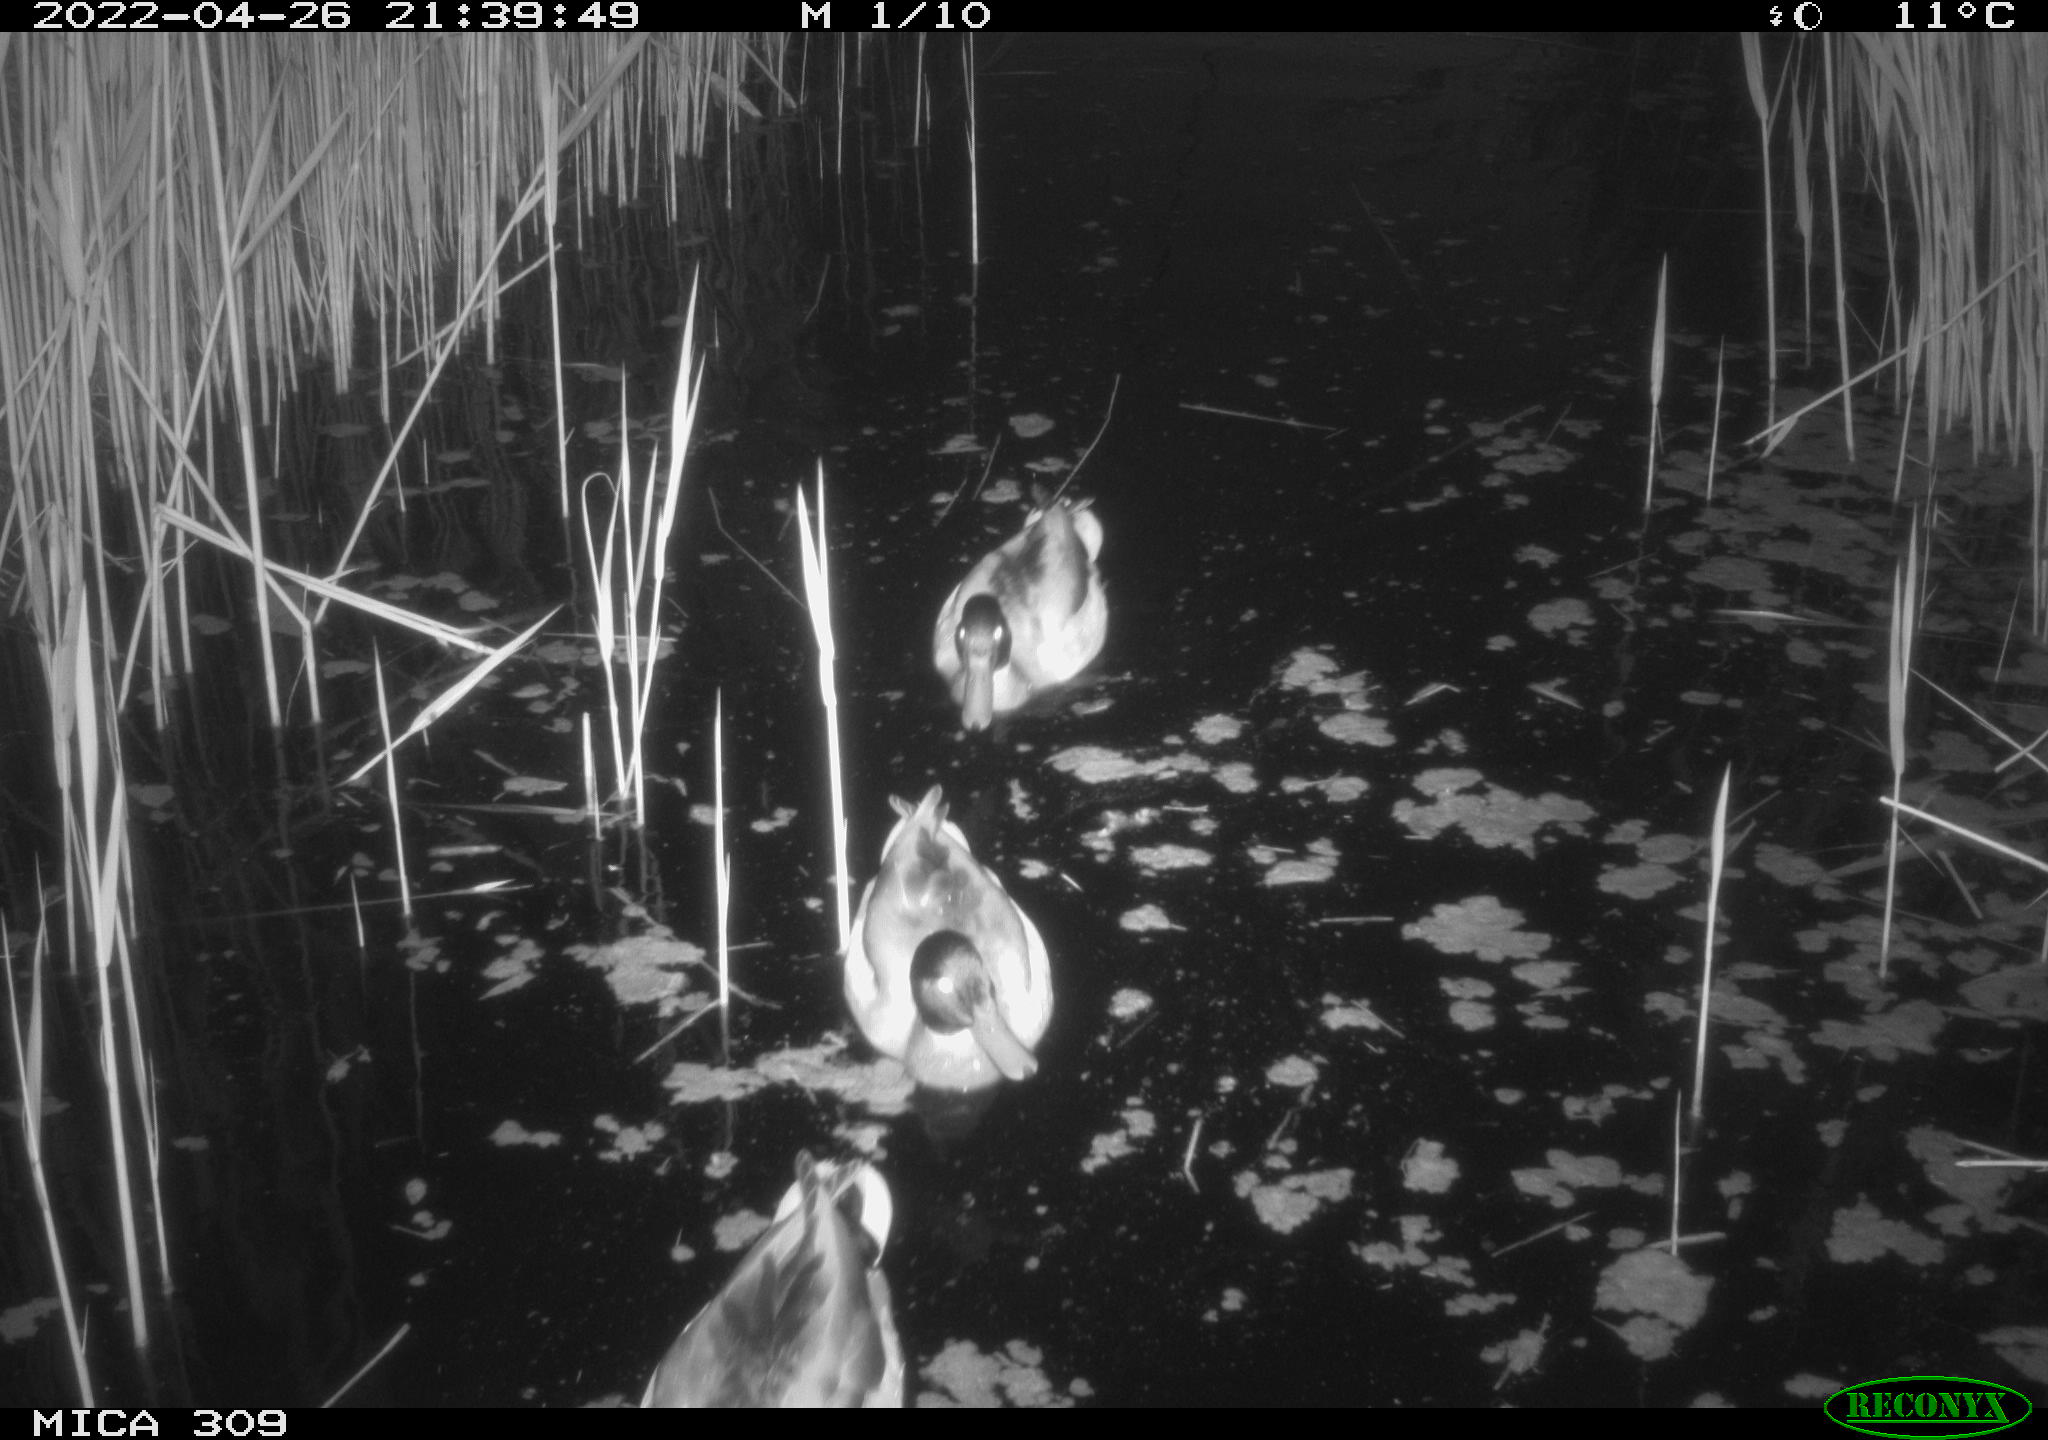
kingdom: Animalia
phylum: Chordata
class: Aves
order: Gruiformes
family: Rallidae
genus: Gallinula
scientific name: Gallinula chloropus
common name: Common moorhen
